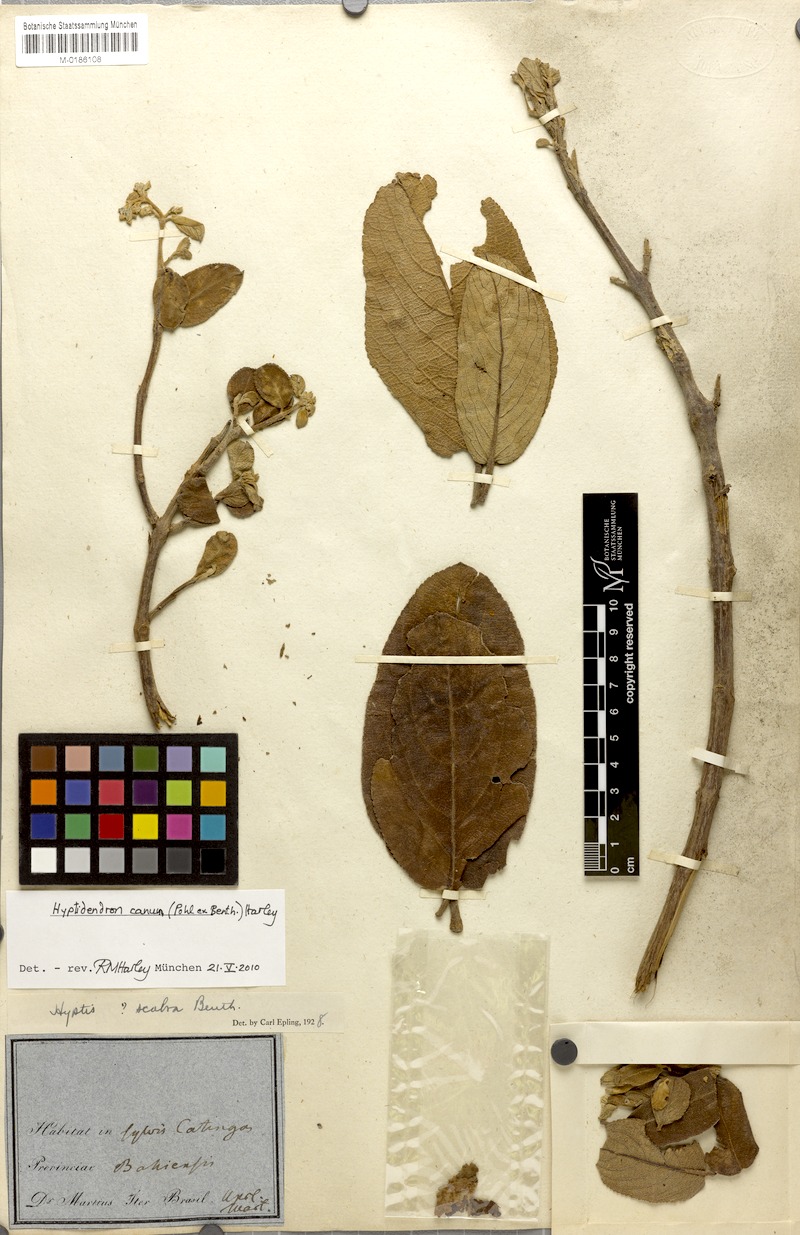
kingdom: Plantae
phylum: Tracheophyta
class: Magnoliopsida
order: Lamiales
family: Lamiaceae
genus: Hyptidendron
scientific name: Hyptidendron canum
